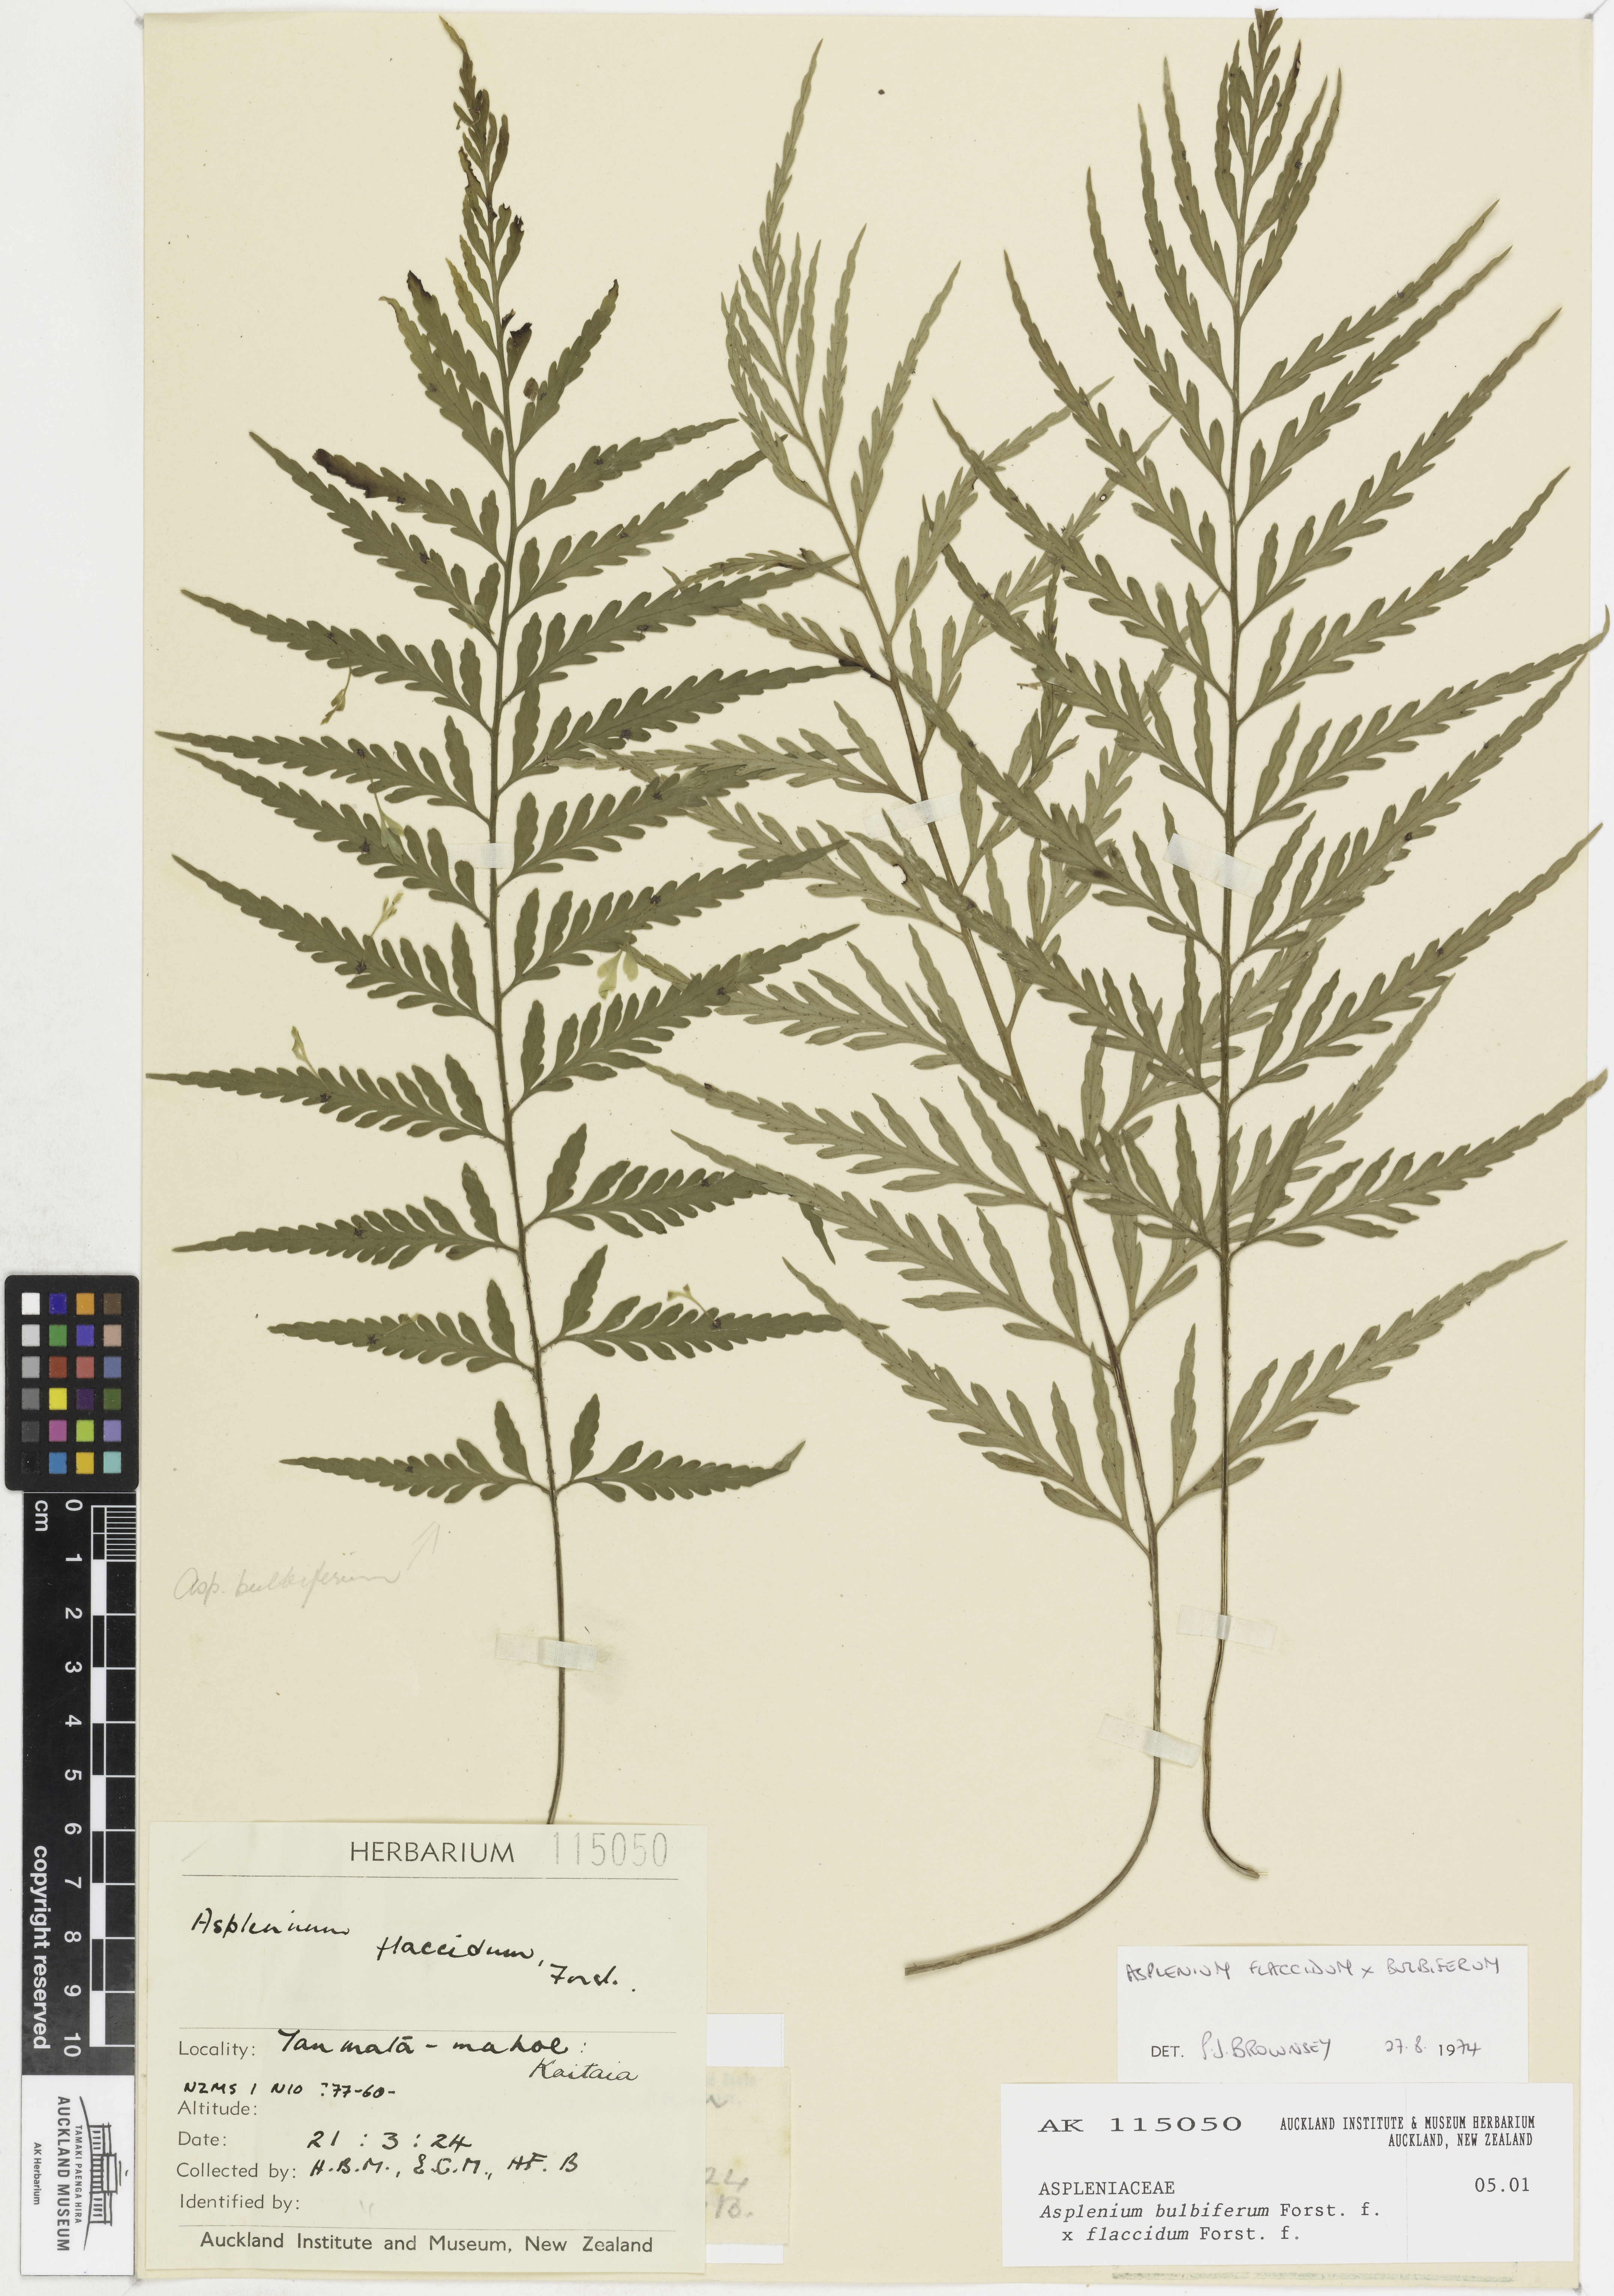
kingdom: Plantae
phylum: Tracheophyta
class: Polypodiopsida
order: Polypodiales
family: Aspleniaceae
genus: Asplenium
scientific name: Asplenium
